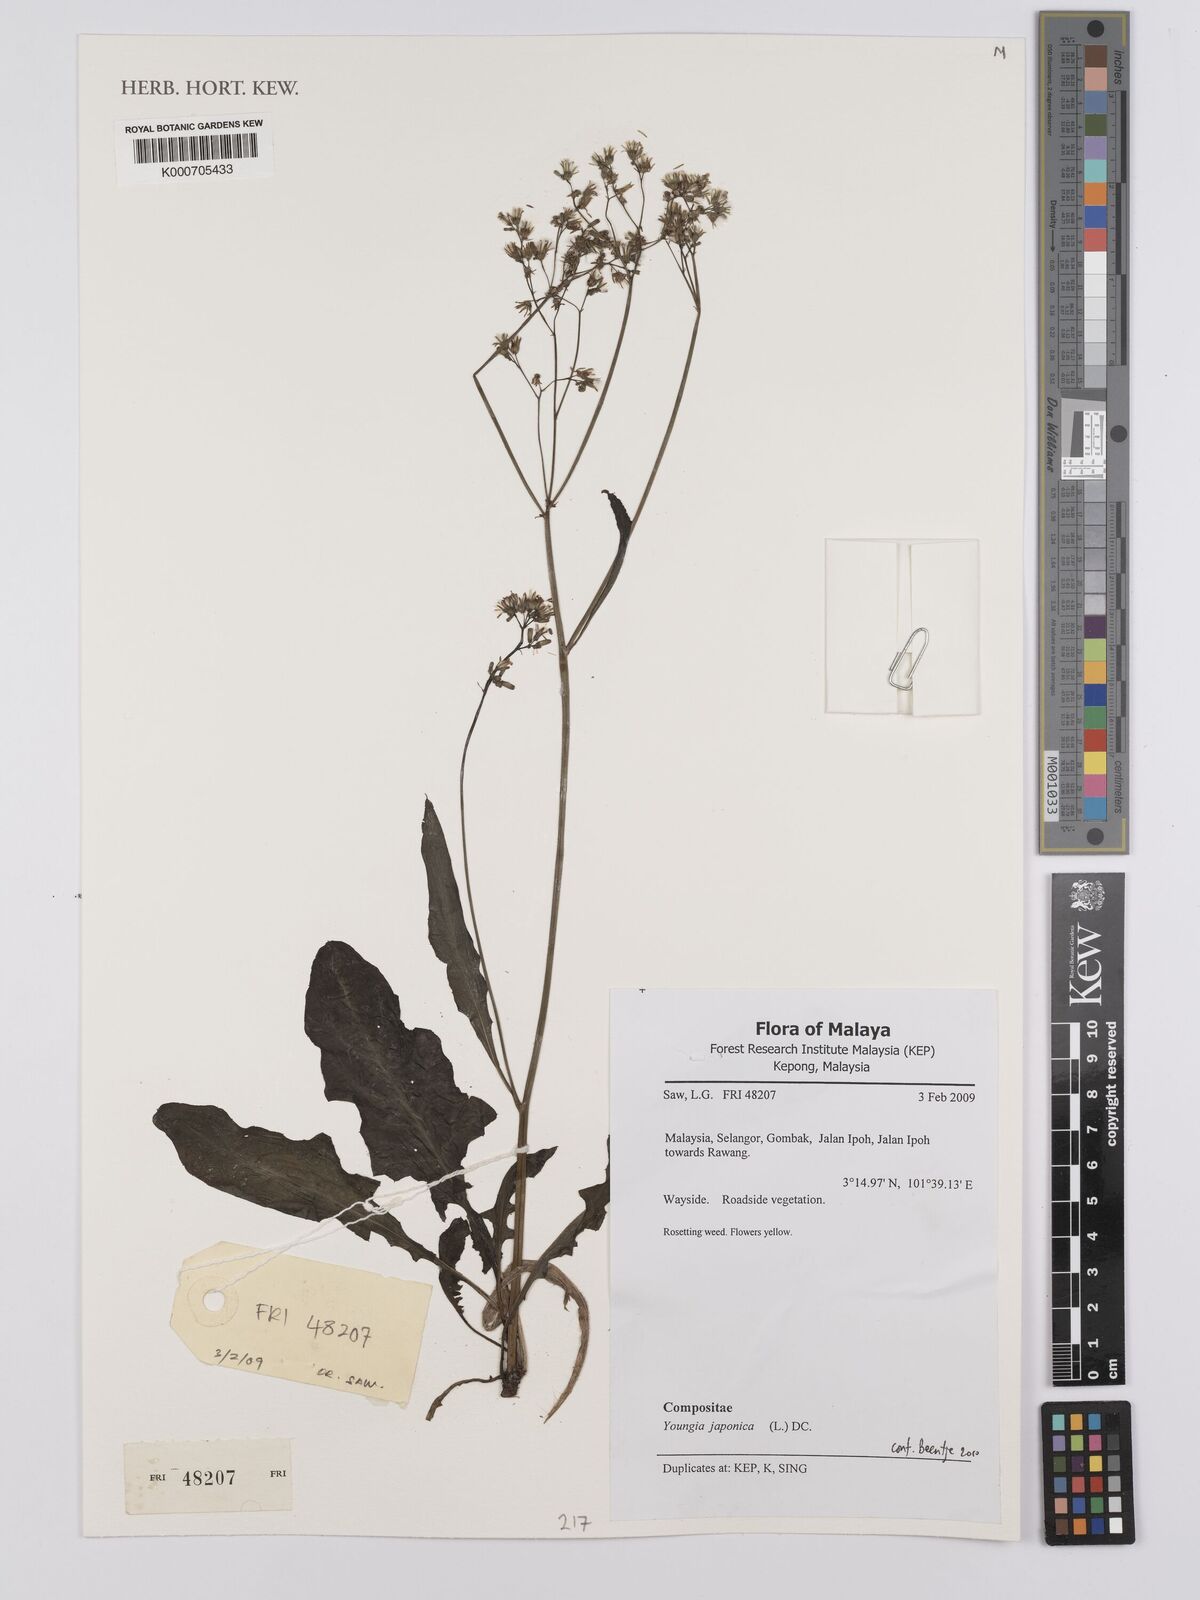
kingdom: Plantae
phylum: Tracheophyta
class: Magnoliopsida
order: Asterales
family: Asteraceae
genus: Youngia
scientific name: Youngia
